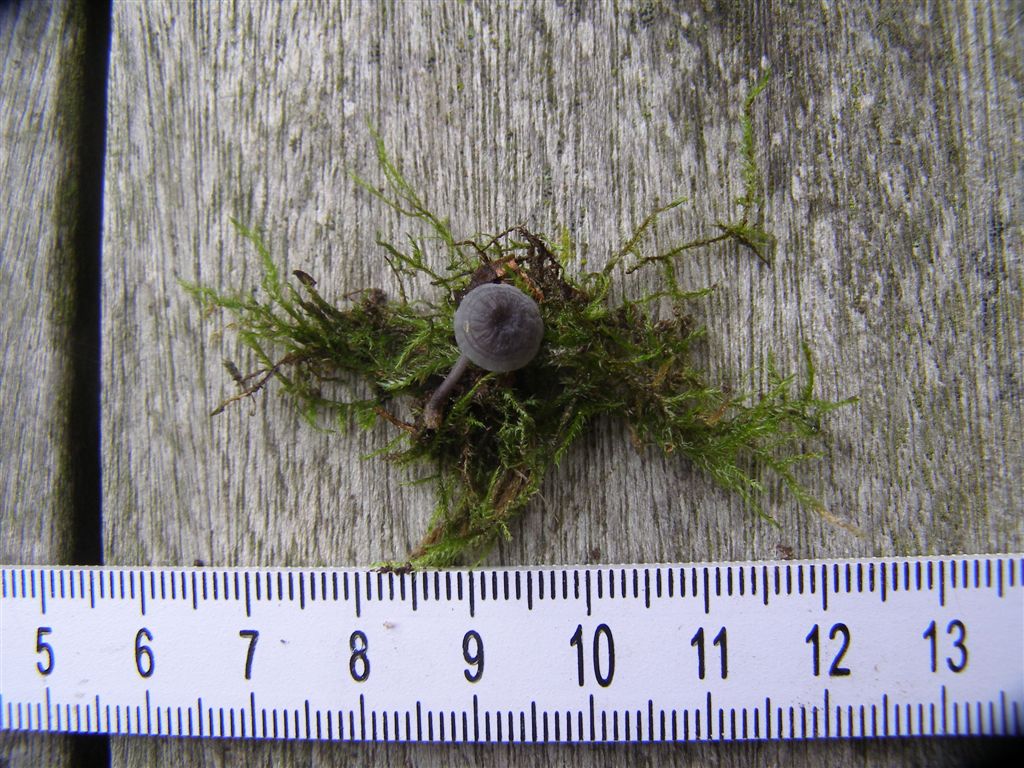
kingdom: Fungi
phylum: Basidiomycota
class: Agaricomycetes
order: Agaricales
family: Mycenaceae
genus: Mycena
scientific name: Mycena pseudocorticola
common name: gråblå bark-huesvamp
